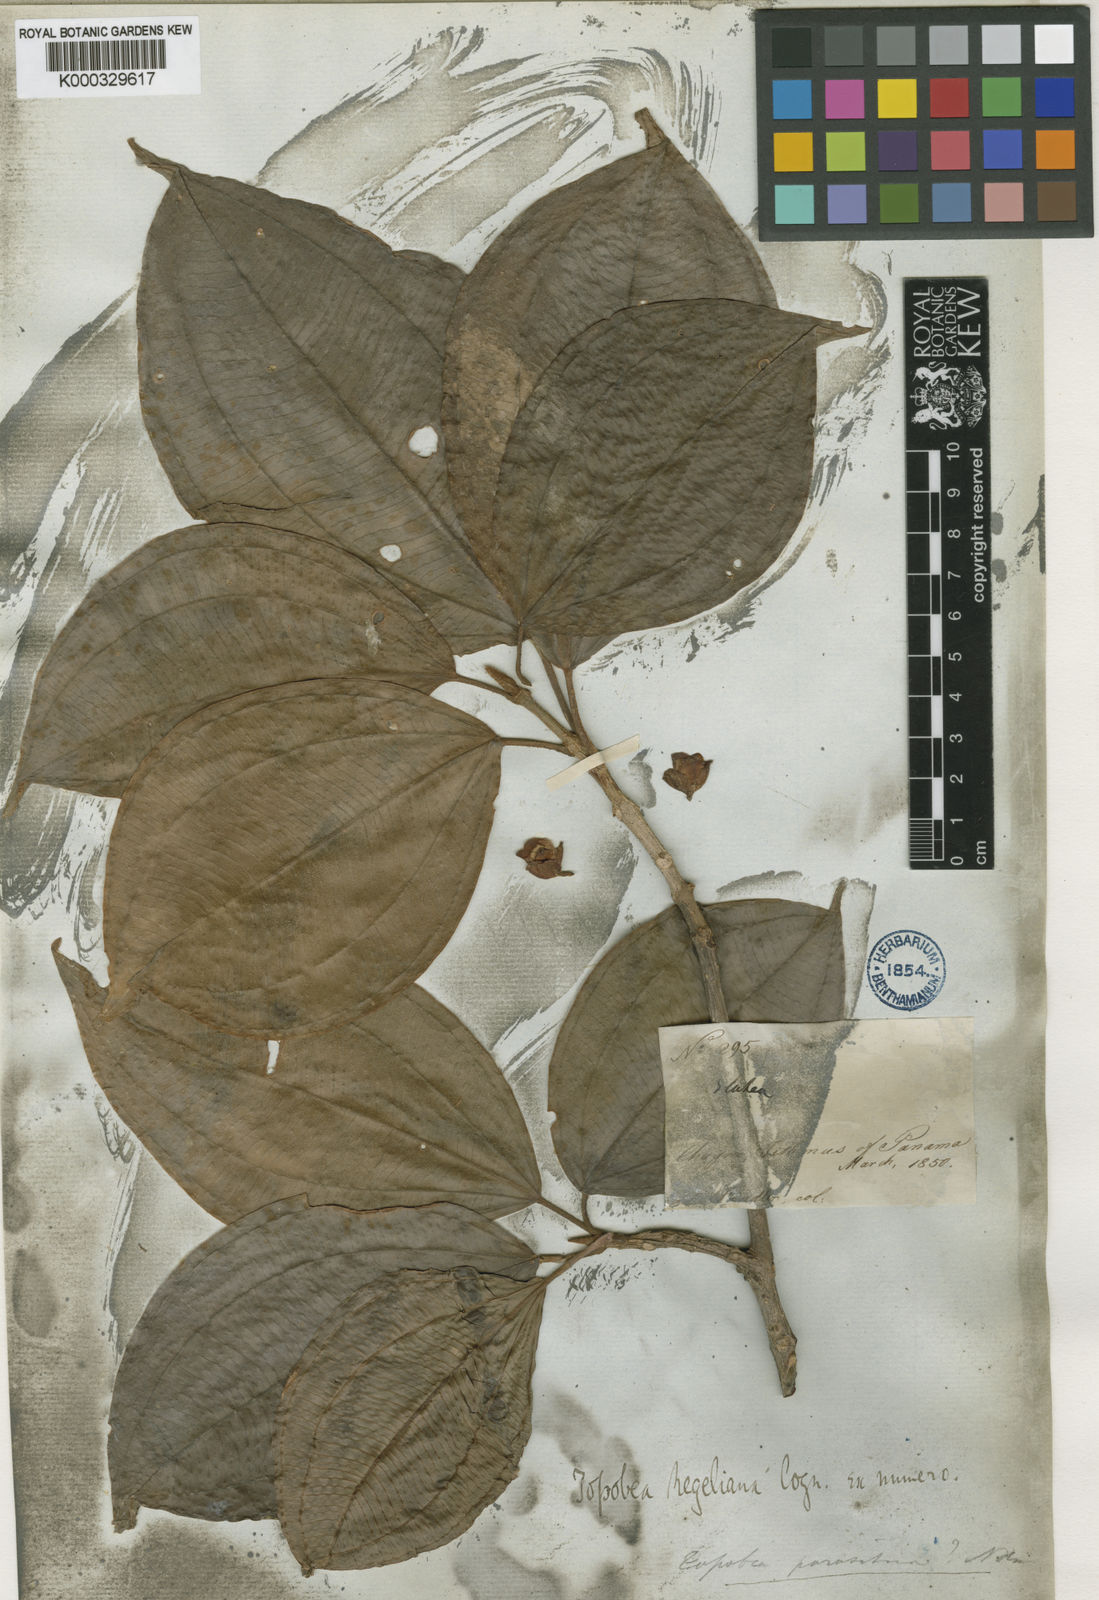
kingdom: Plantae
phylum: Tracheophyta
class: Magnoliopsida
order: Myrtales
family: Melastomataceae
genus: Blakea
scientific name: Blakea parasitica
